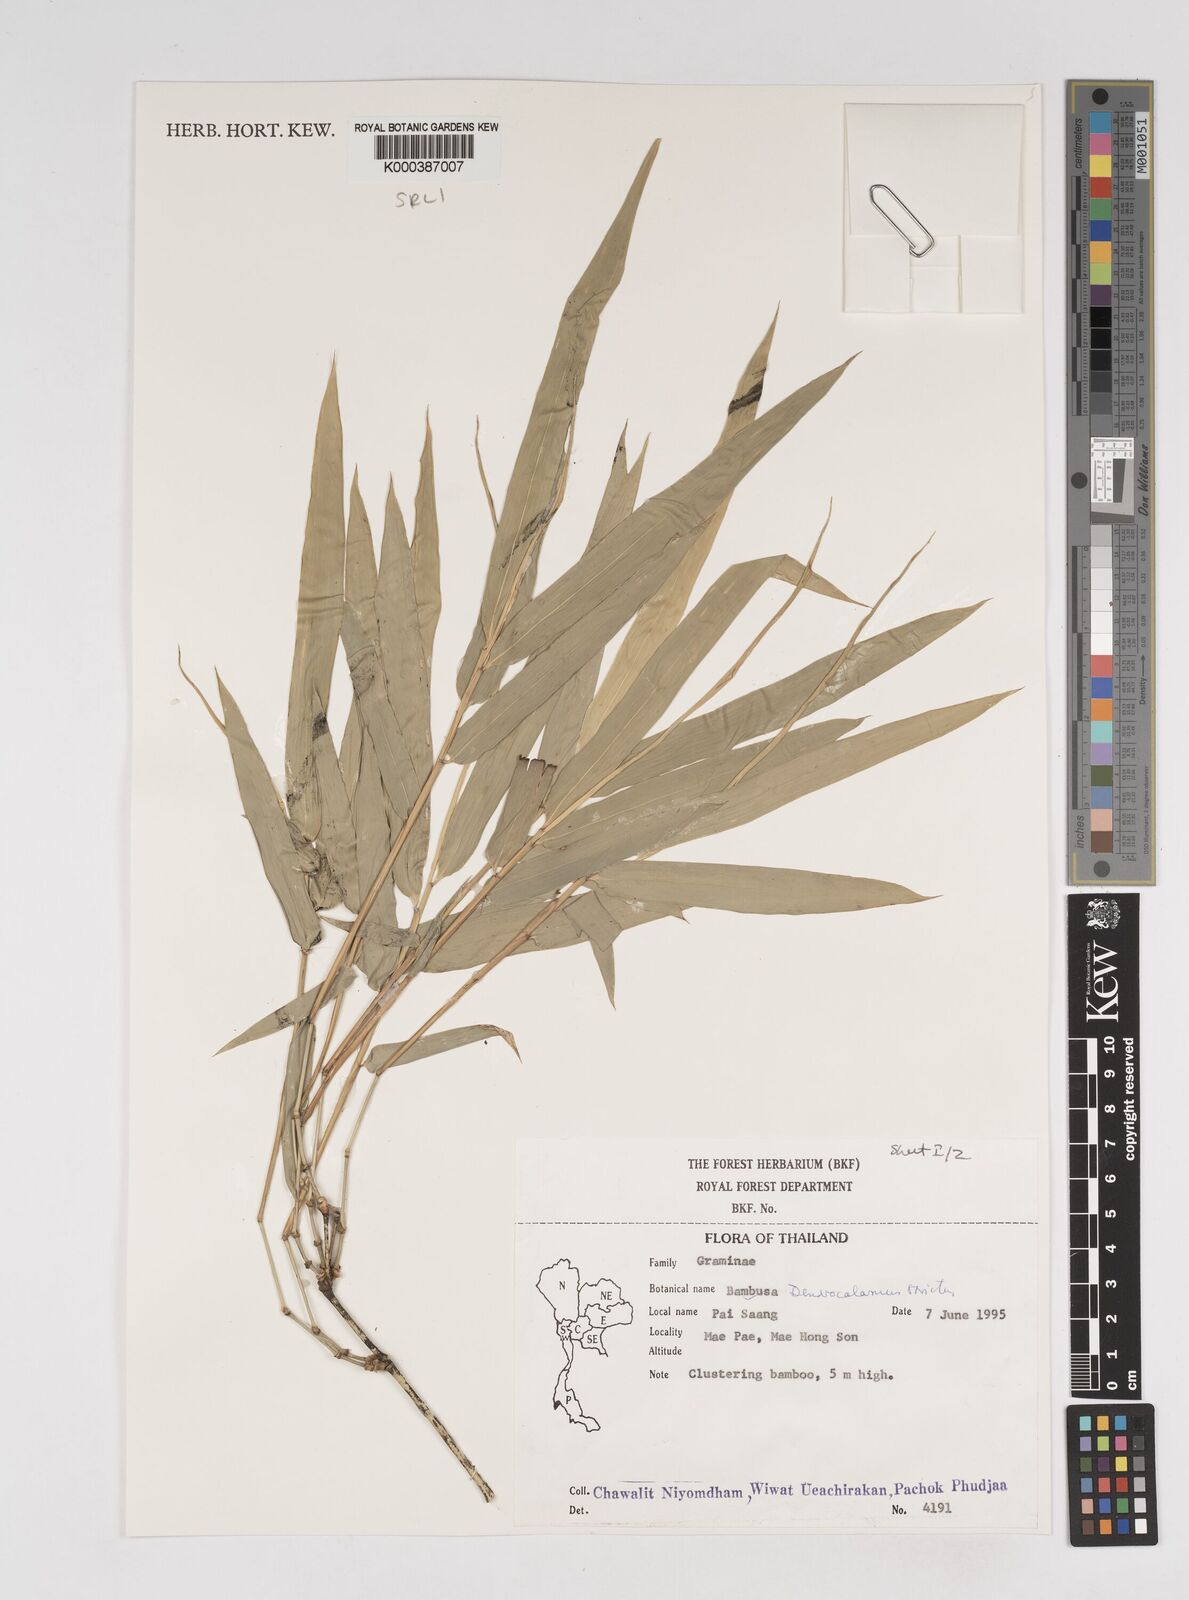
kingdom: Plantae
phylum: Tracheophyta
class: Liliopsida
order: Poales
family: Poaceae
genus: Dendrocalamus
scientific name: Dendrocalamus membranaceus
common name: White bamboo
